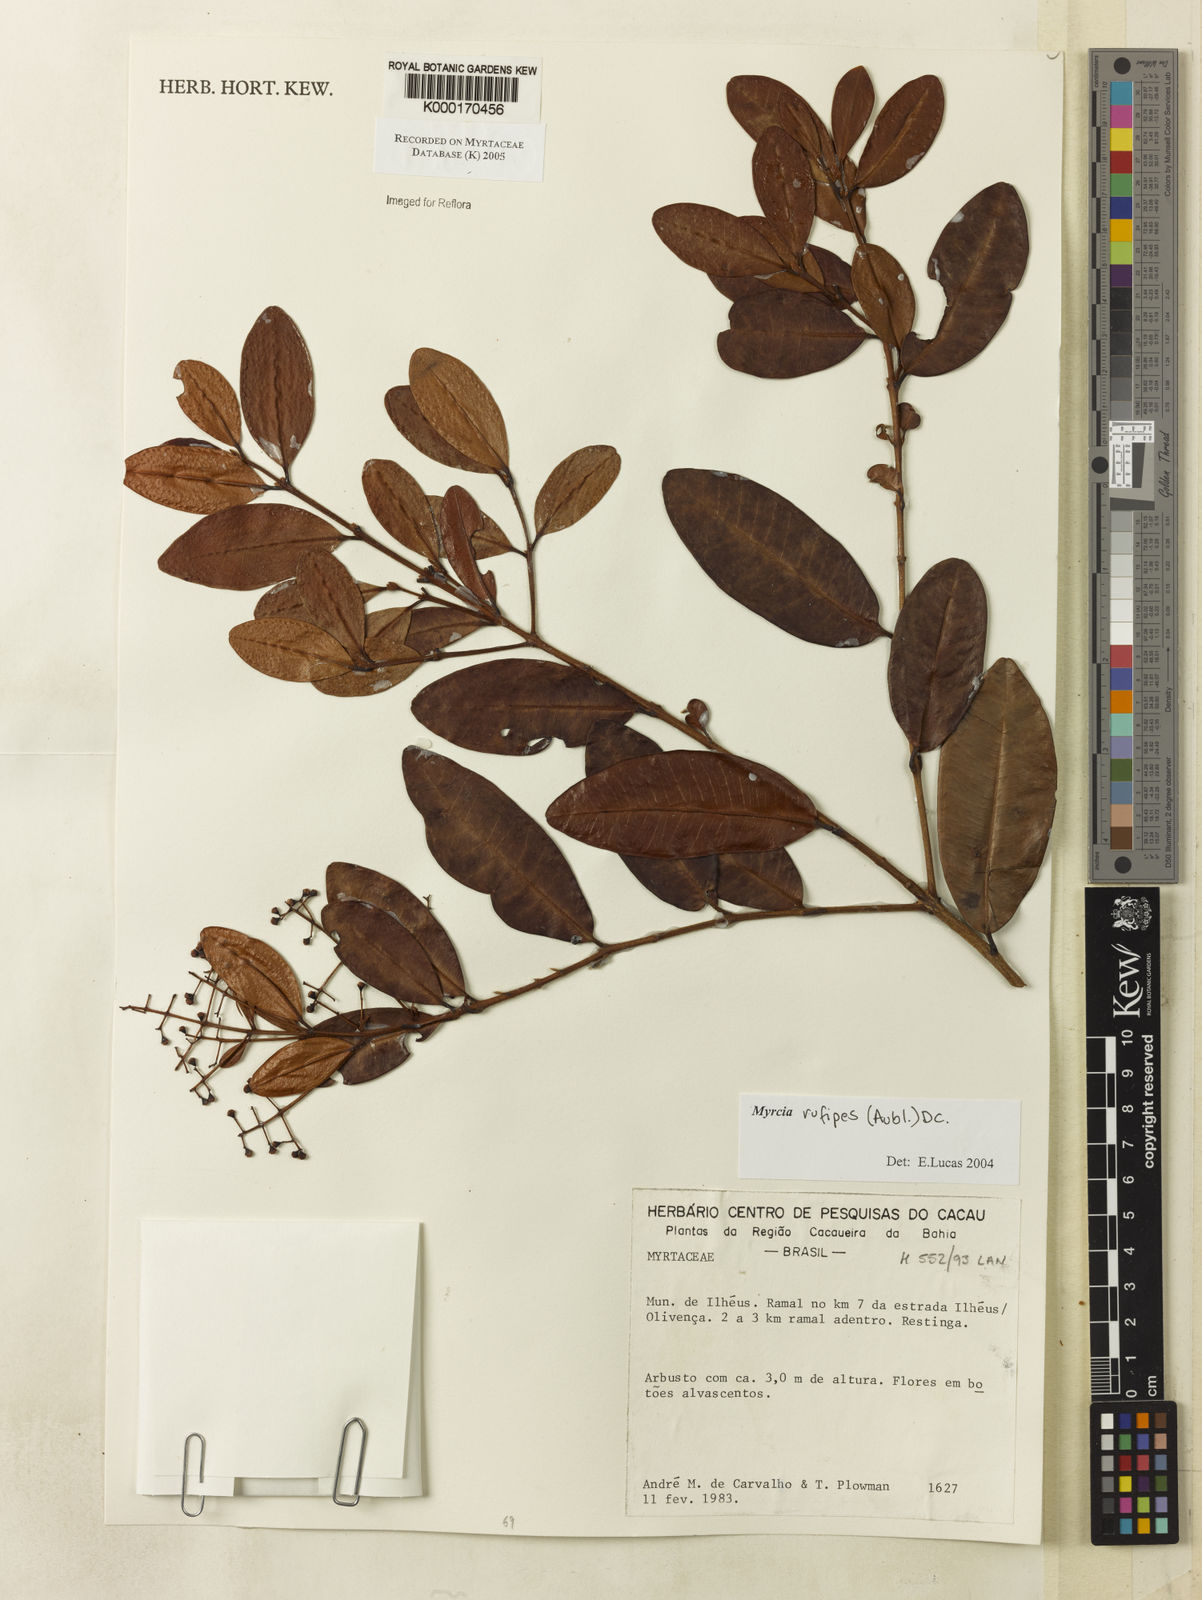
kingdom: Plantae
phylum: Tracheophyta
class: Magnoliopsida
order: Myrtales
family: Myrtaceae
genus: Myrcia
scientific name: Myrcia rufipes
